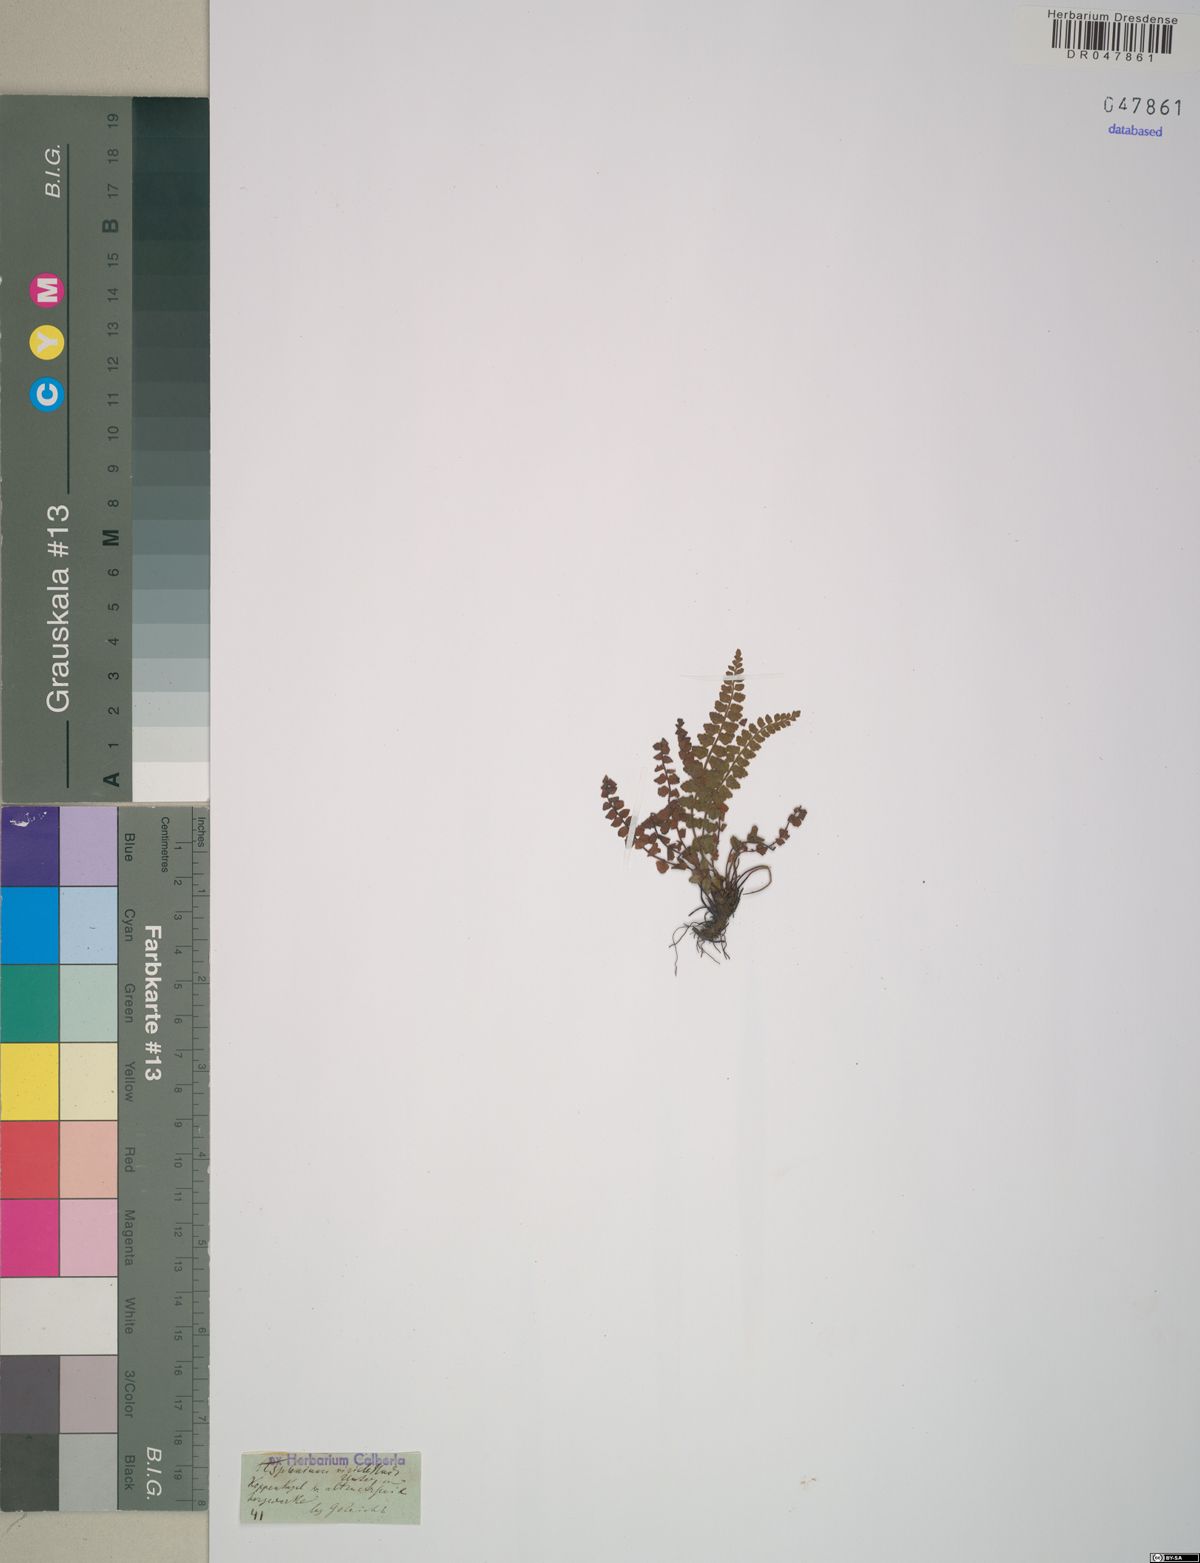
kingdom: Plantae
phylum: Tracheophyta
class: Polypodiopsida
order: Polypodiales
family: Aspleniaceae
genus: Asplenium
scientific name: Asplenium viride
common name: Green spleenwort
